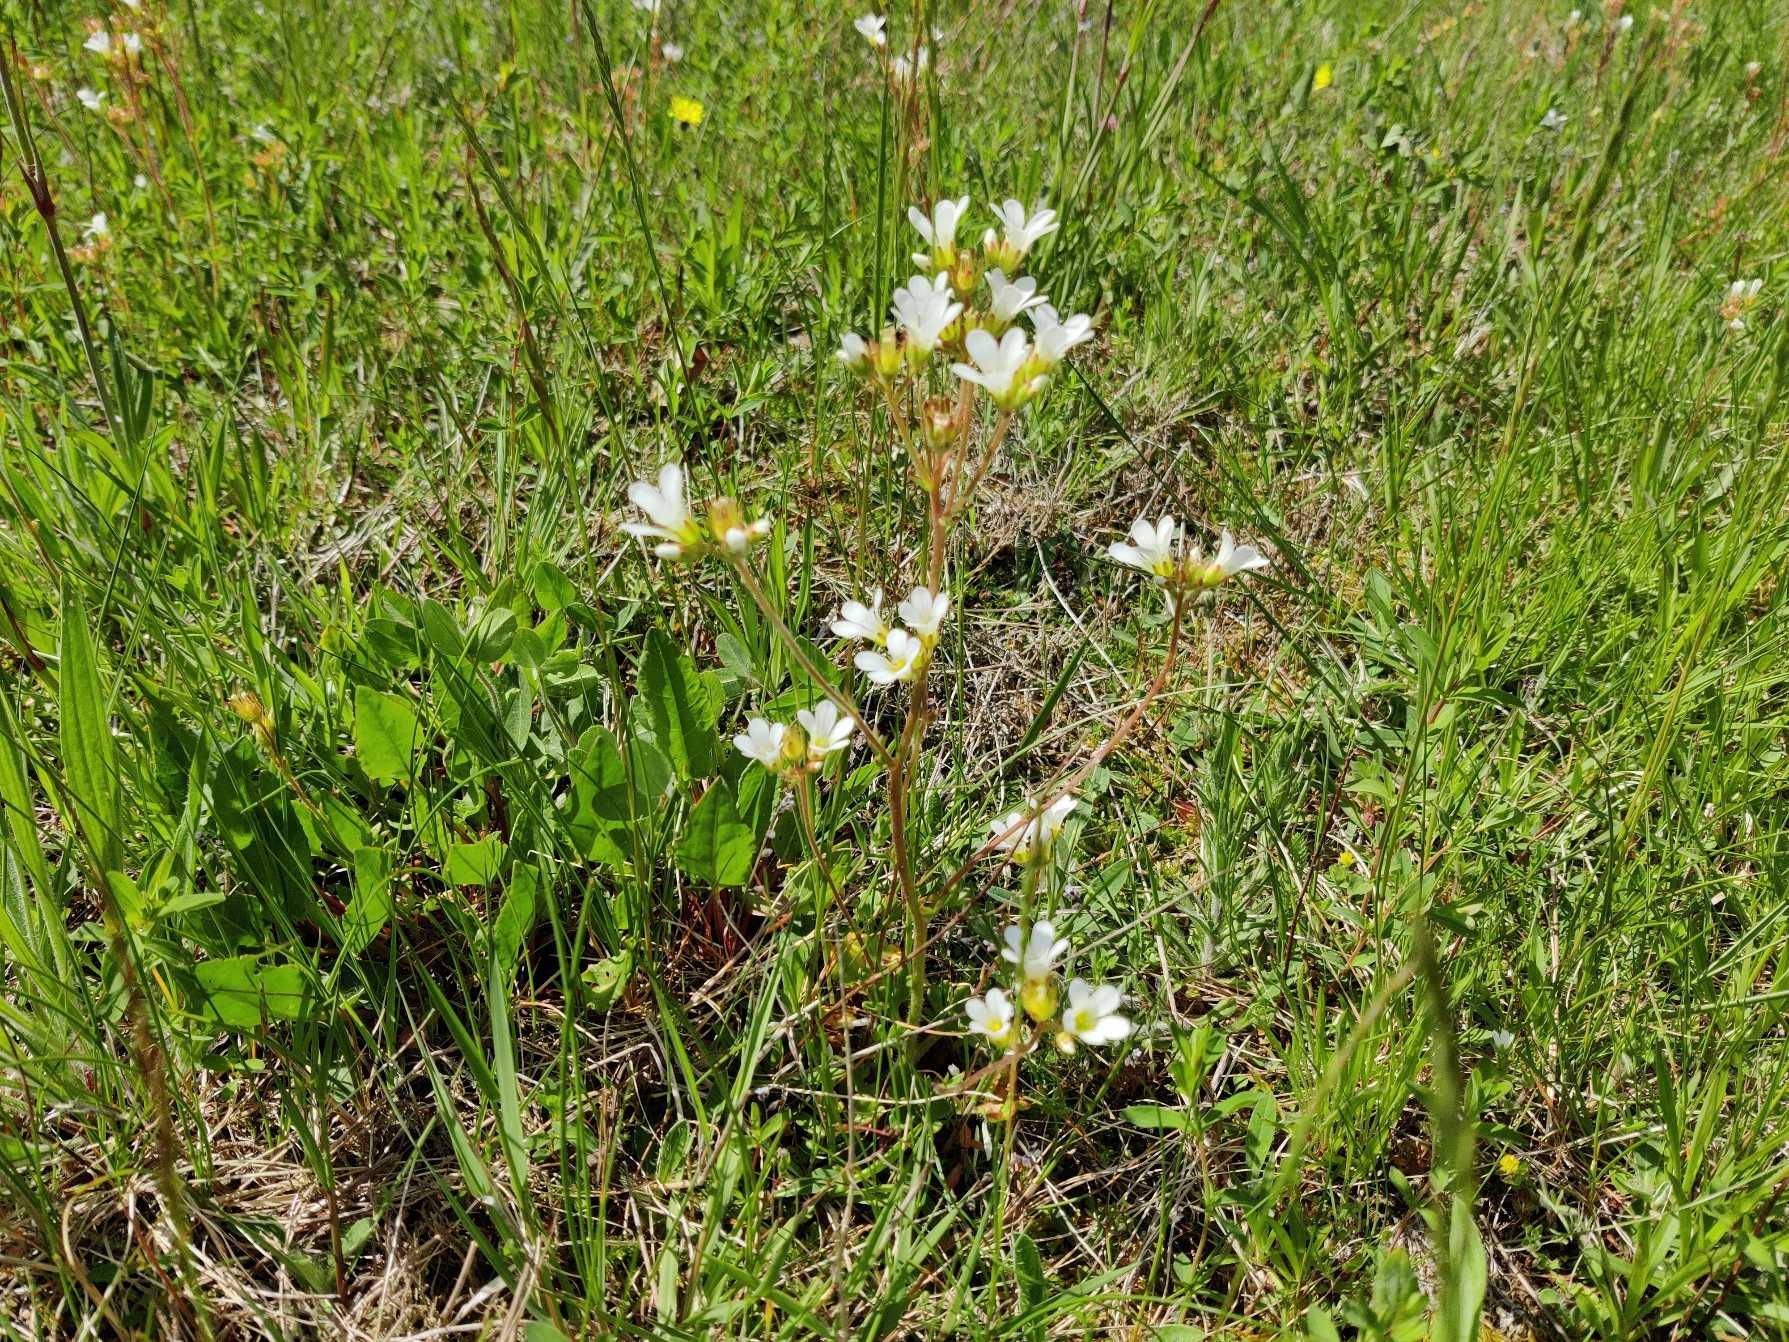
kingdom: Plantae
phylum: Tracheophyta
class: Magnoliopsida
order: Saxifragales
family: Saxifragaceae
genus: Saxifraga
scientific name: Saxifraga granulata
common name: Kornet stenbræk
